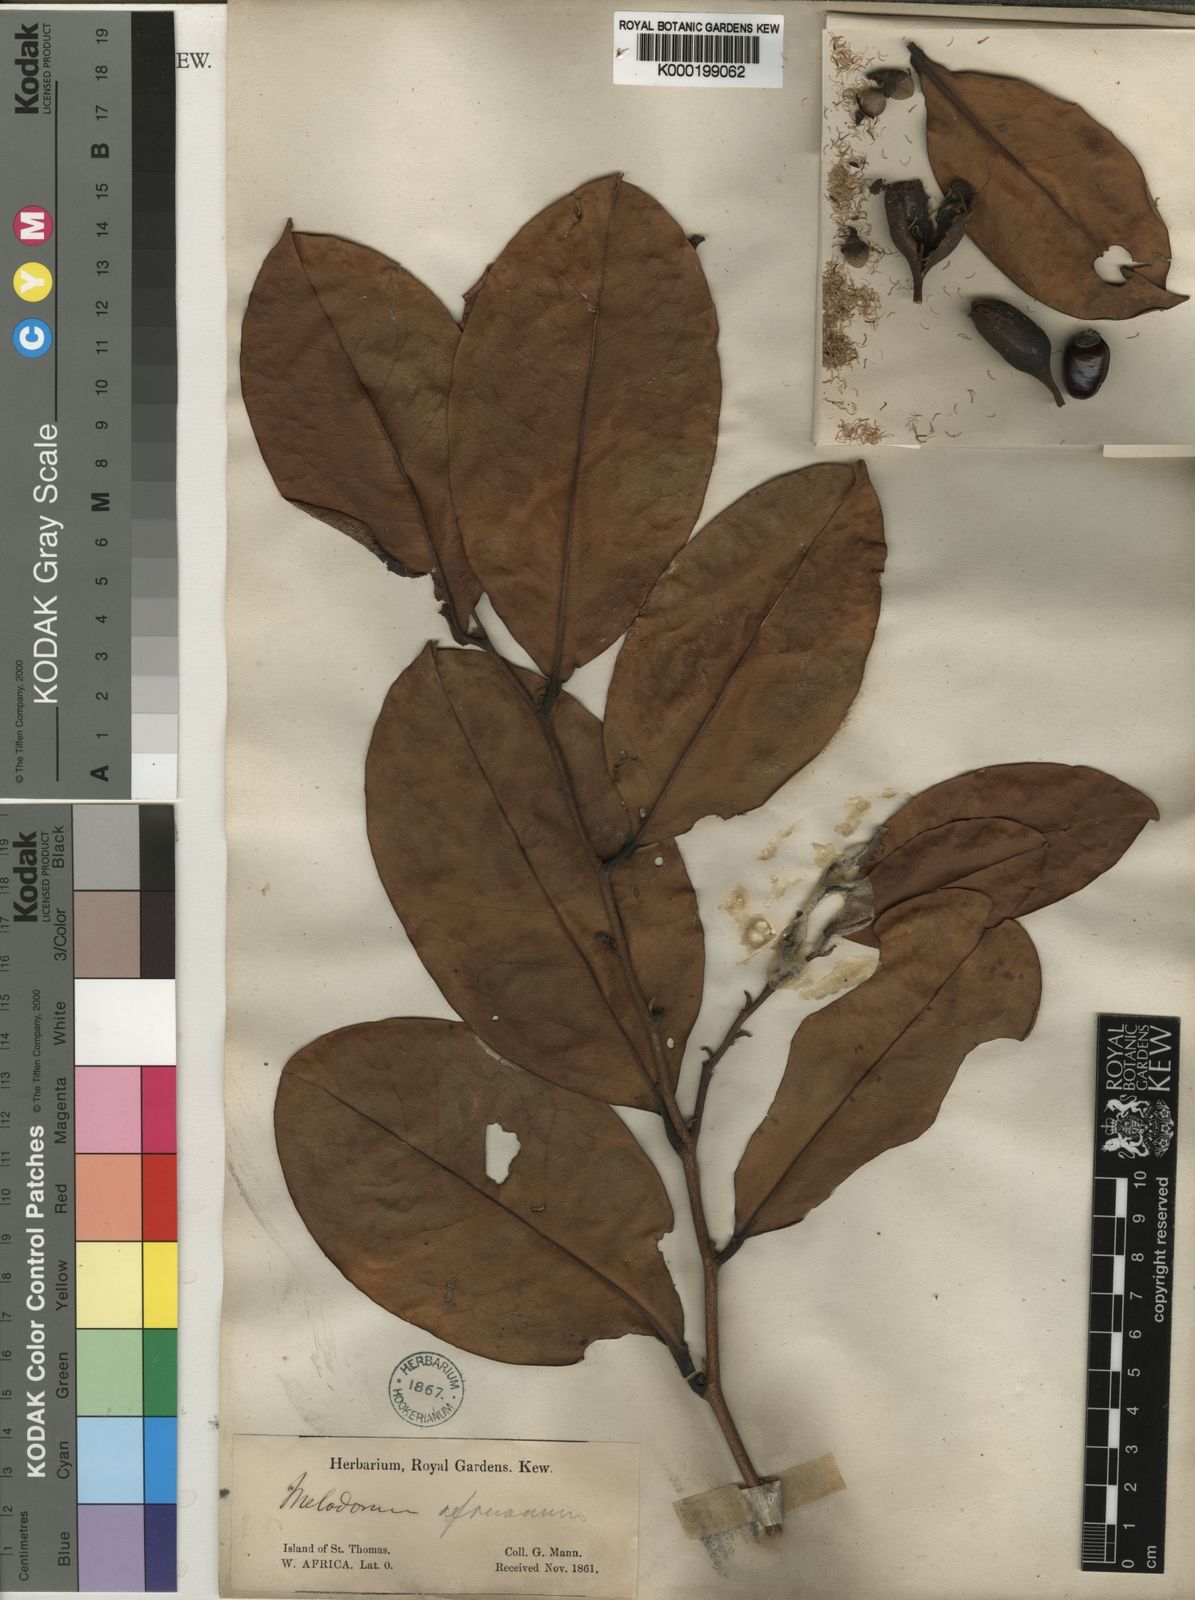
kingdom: Plantae
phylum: Tracheophyta
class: Magnoliopsida
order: Magnoliales
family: Annonaceae
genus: Xylopia
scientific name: Xylopia africana
